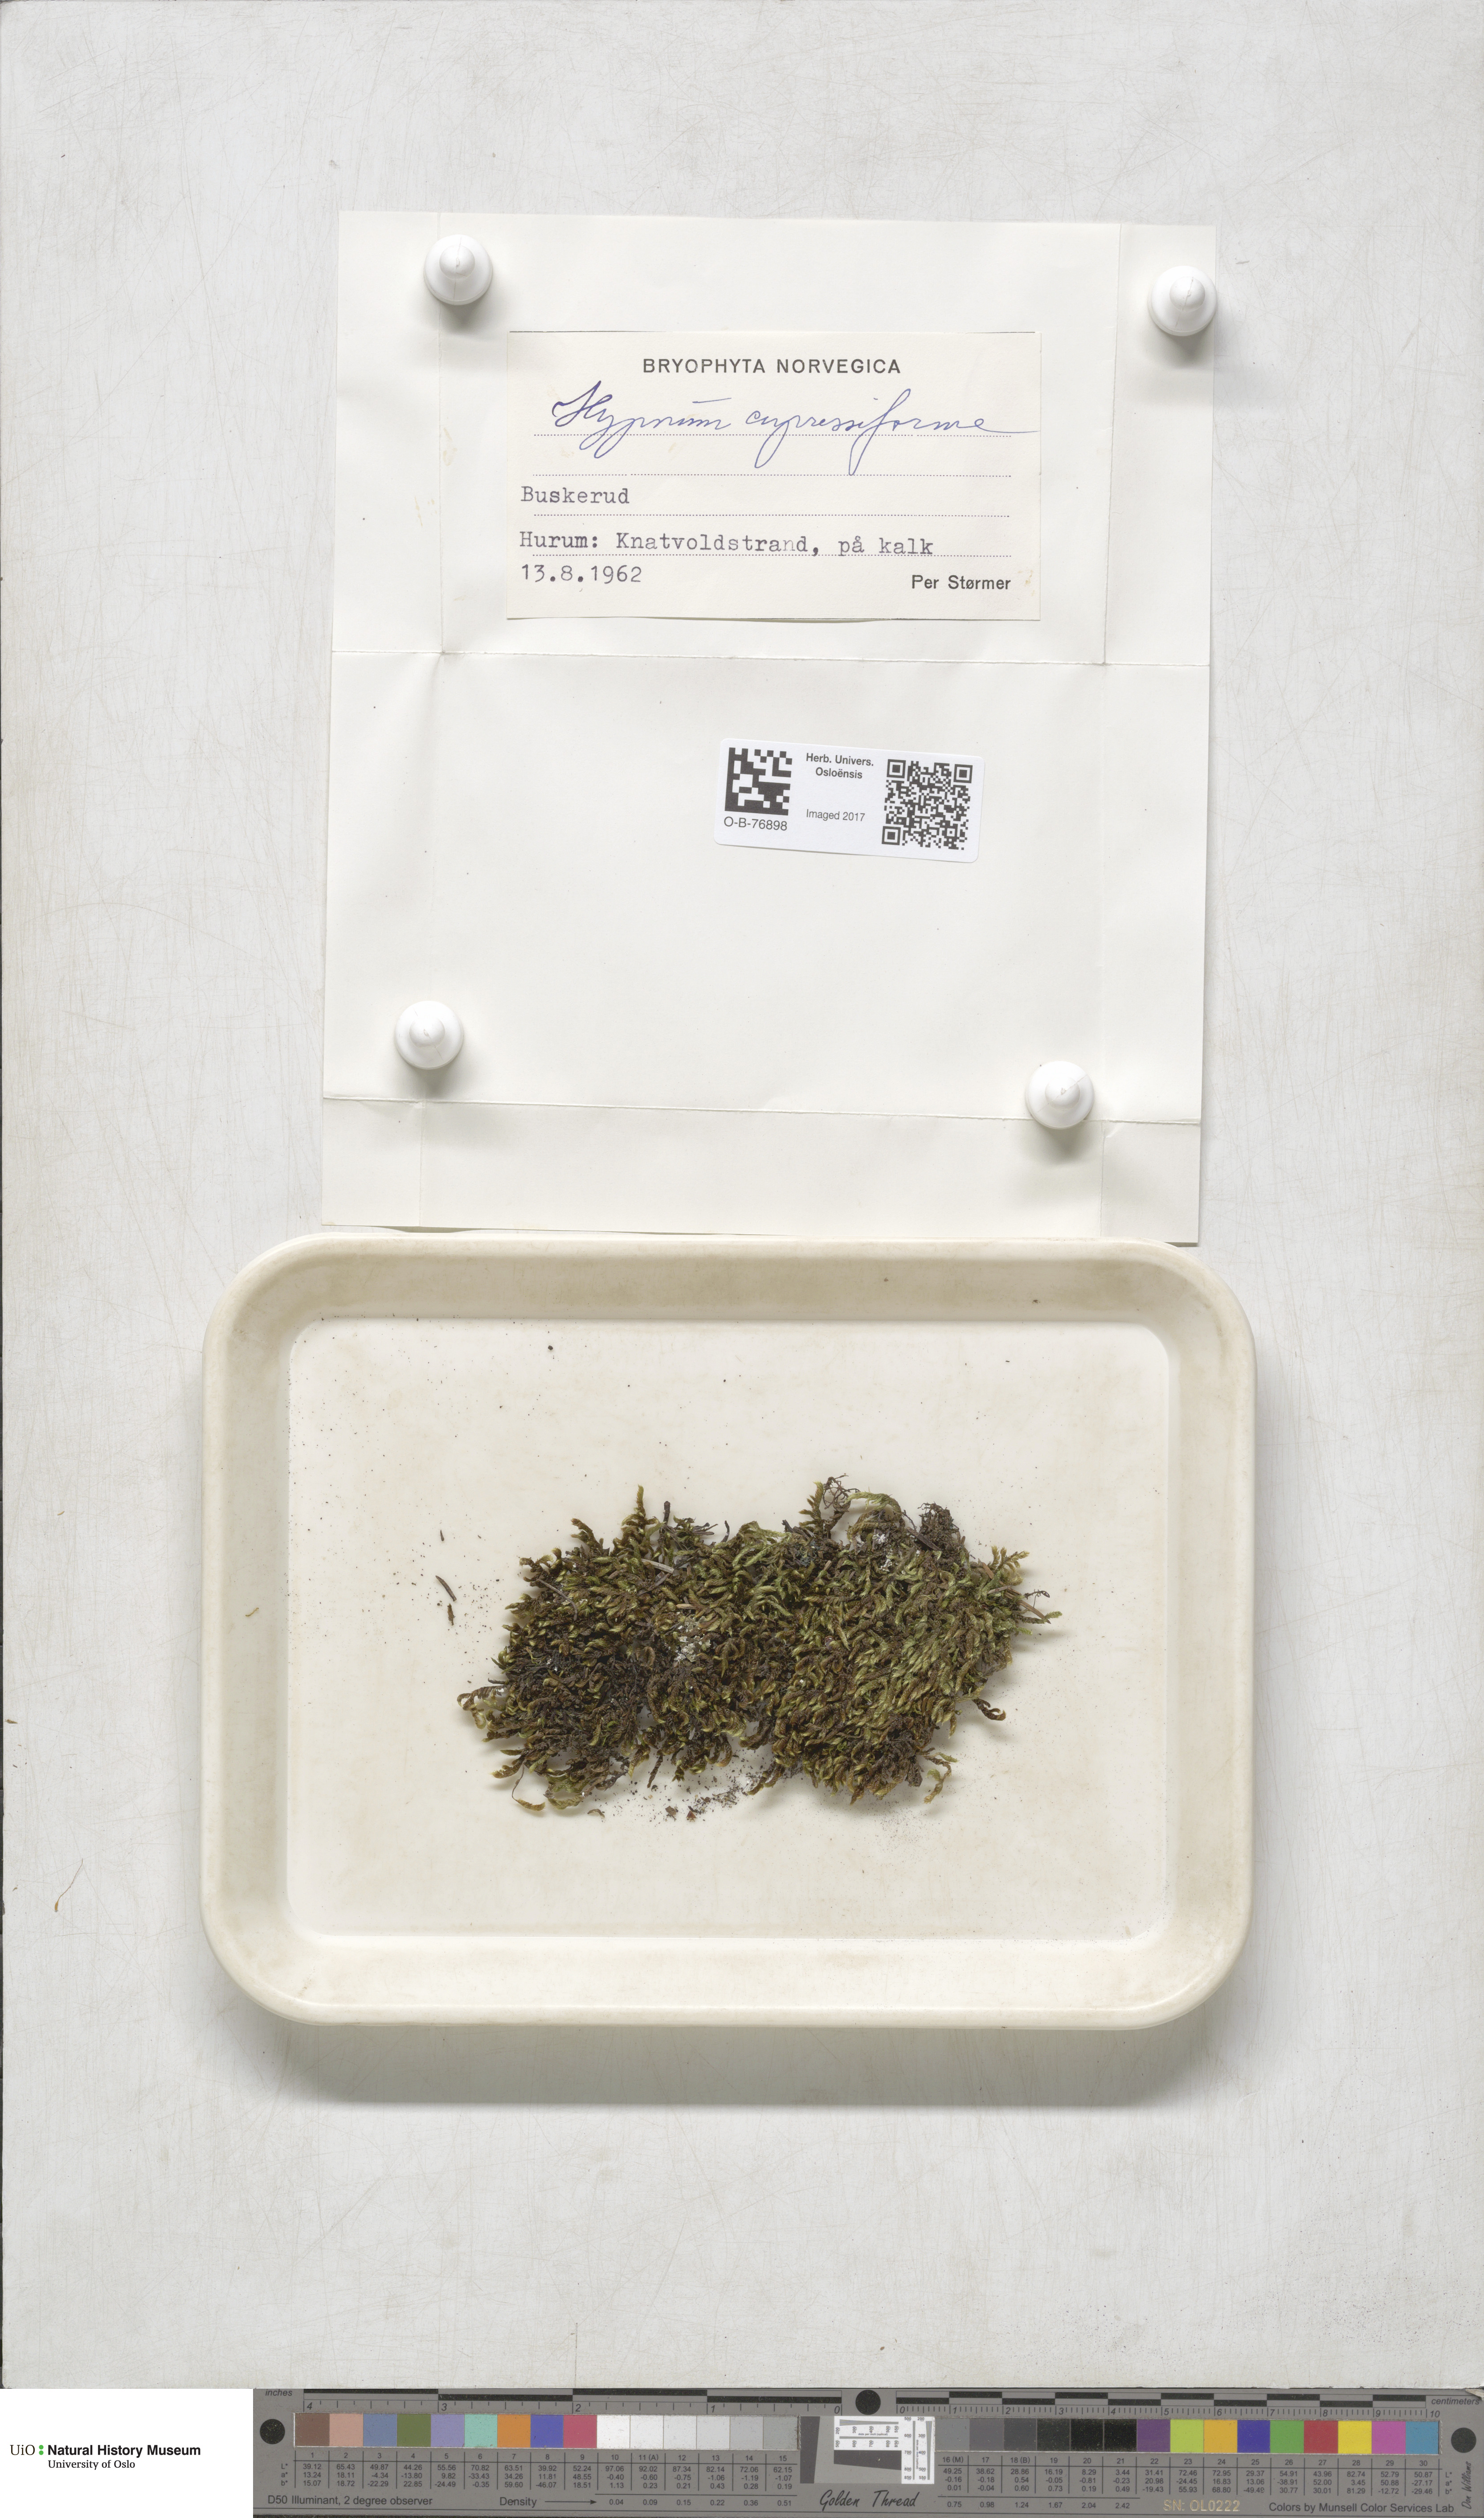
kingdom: Plantae
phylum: Bryophyta
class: Bryopsida
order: Hypnales
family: Hypnaceae
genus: Hypnum
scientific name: Hypnum cupressiforme
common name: Cypress-leaved plait-moss
